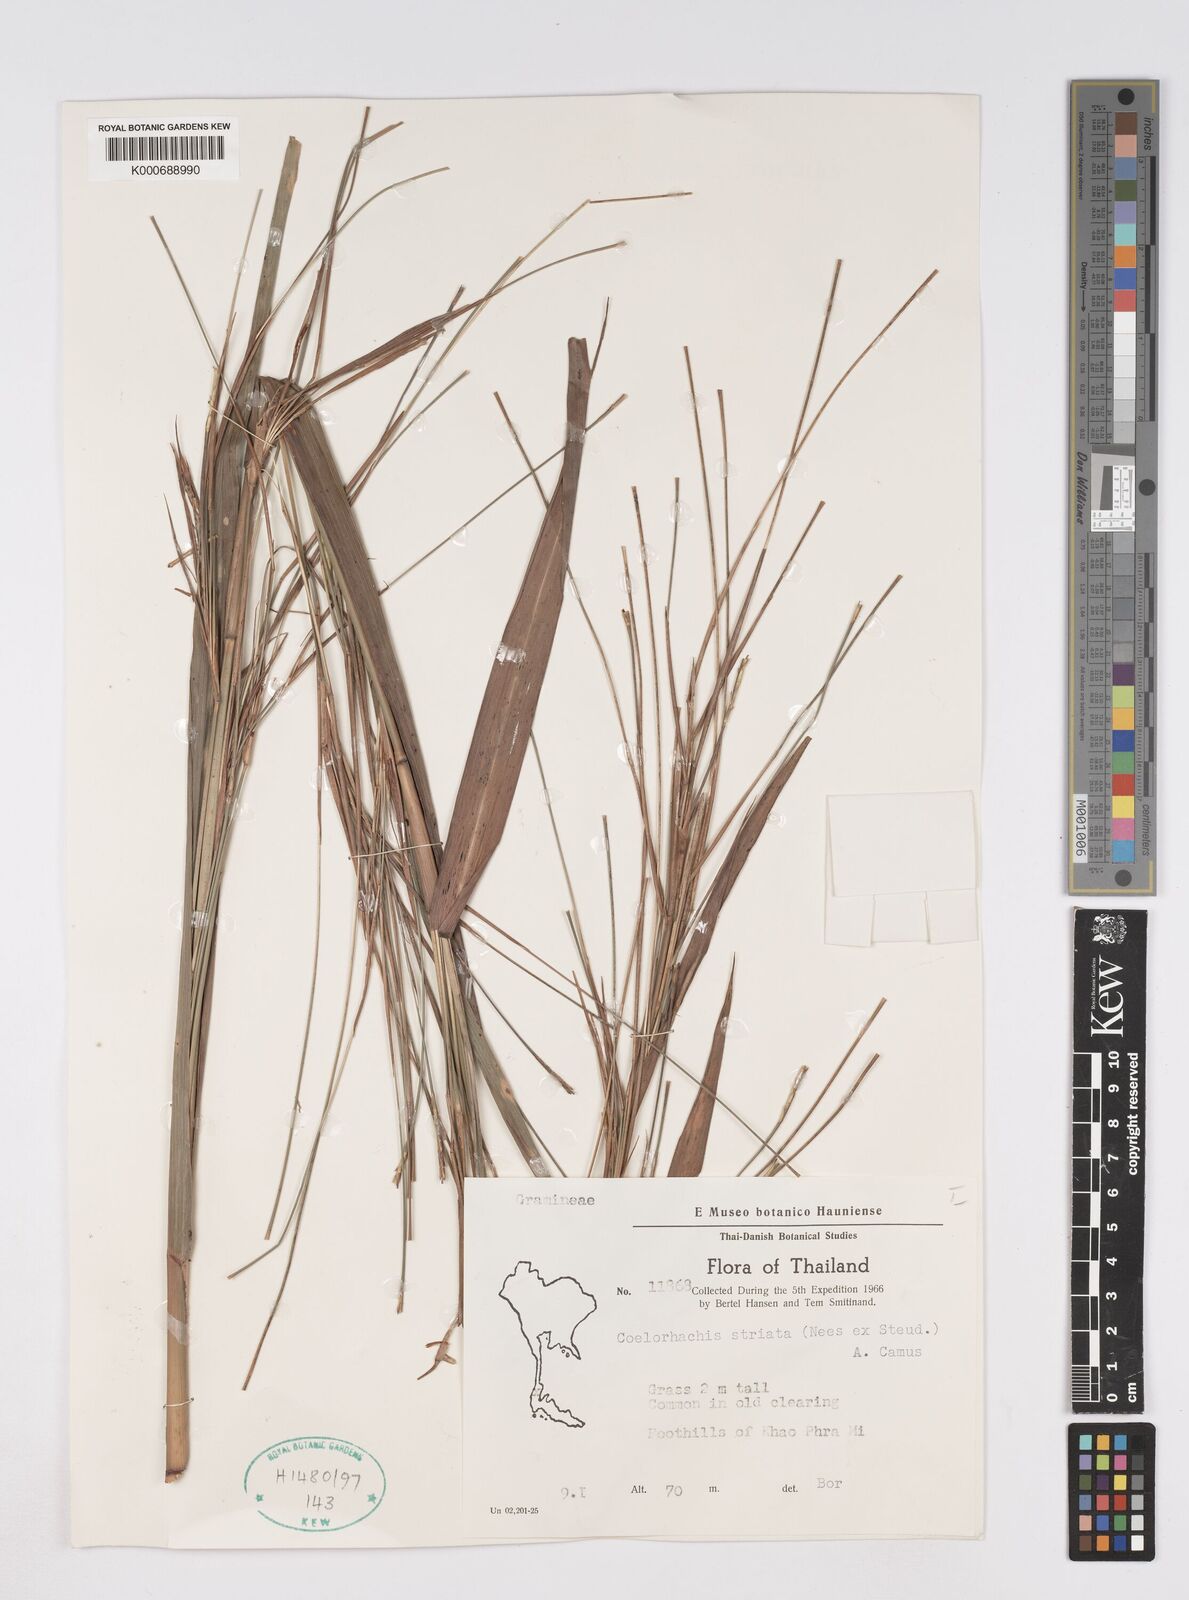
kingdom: Plantae
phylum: Tracheophyta
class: Liliopsida
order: Poales
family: Poaceae
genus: Rottboellia
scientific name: Rottboellia striata
